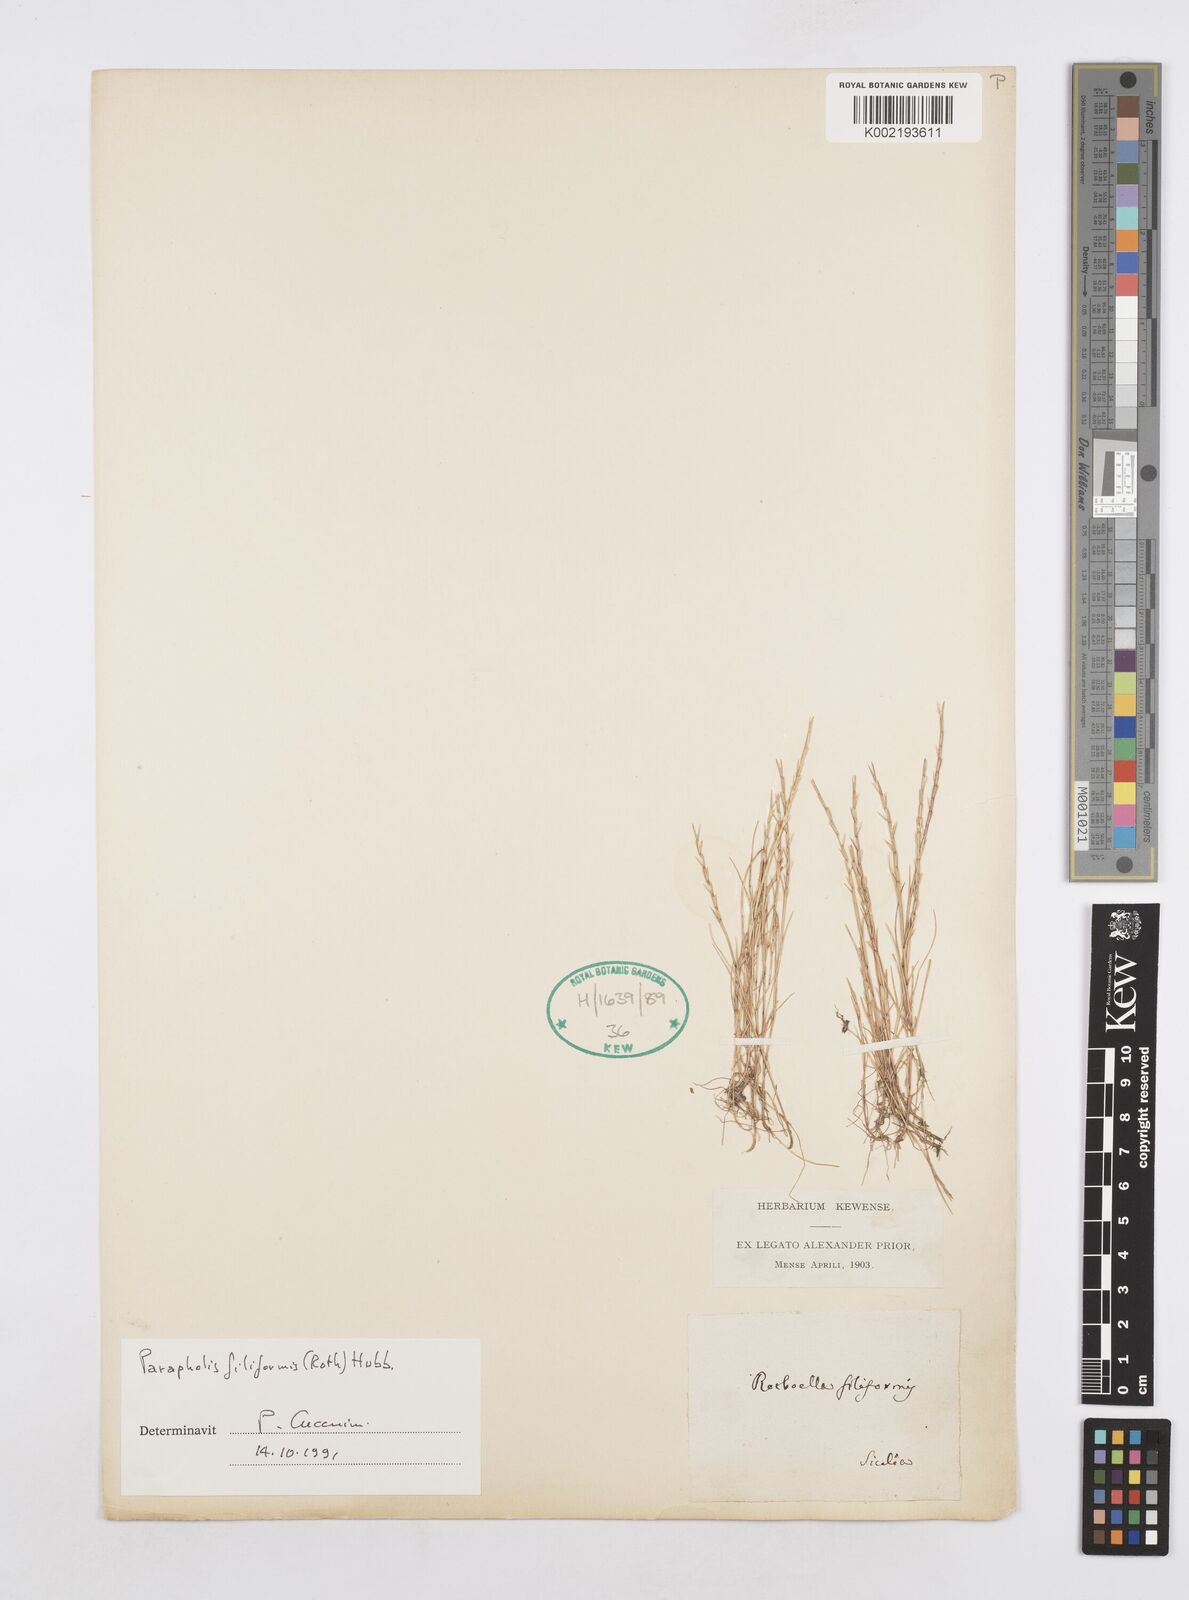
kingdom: Plantae
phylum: Tracheophyta
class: Liliopsida
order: Poales
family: Poaceae
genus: Parapholis
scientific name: Parapholis filiformis
